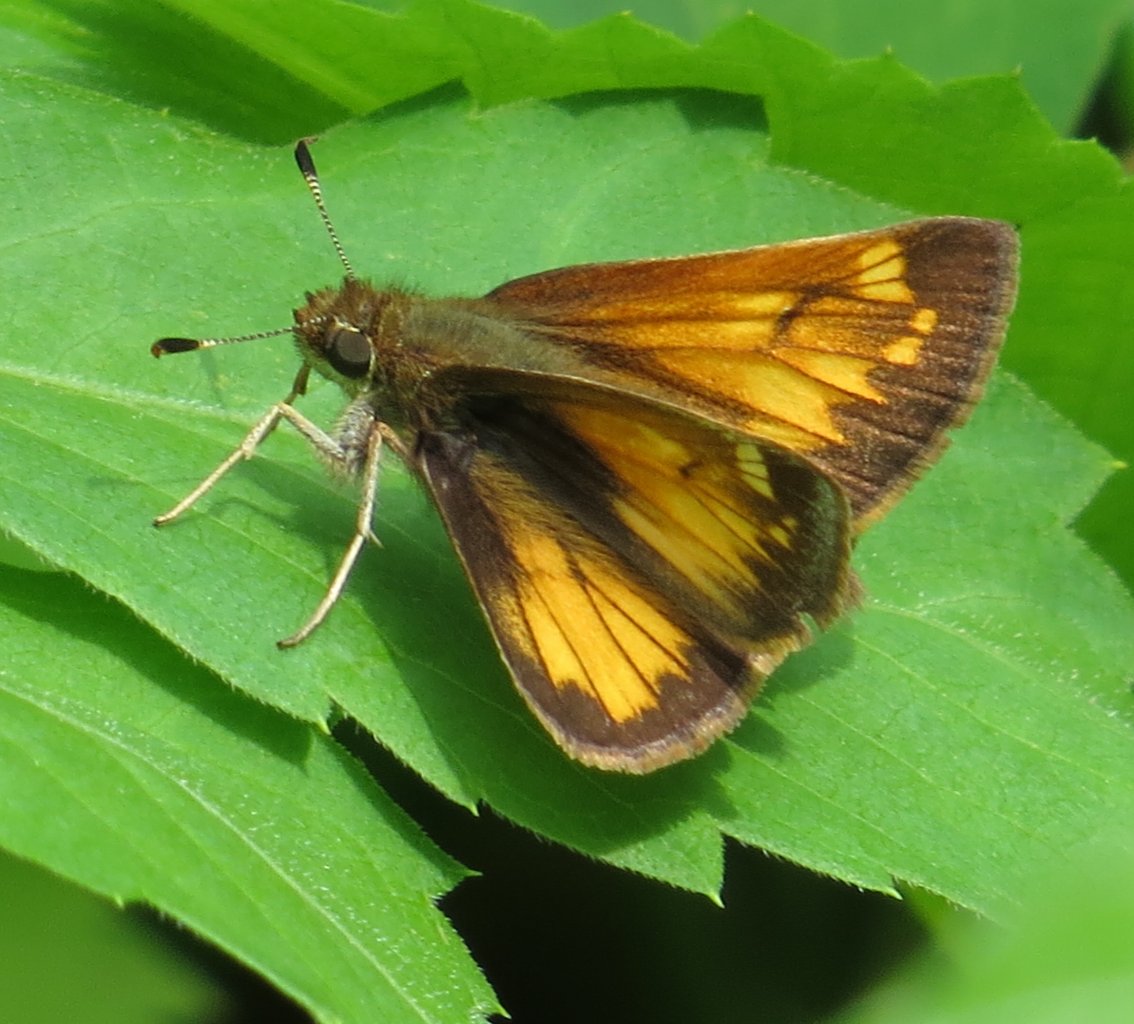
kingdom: Animalia
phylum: Arthropoda
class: Insecta
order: Lepidoptera
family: Hesperiidae
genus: Lon
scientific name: Lon hobomok
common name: Hobomok Skipper
